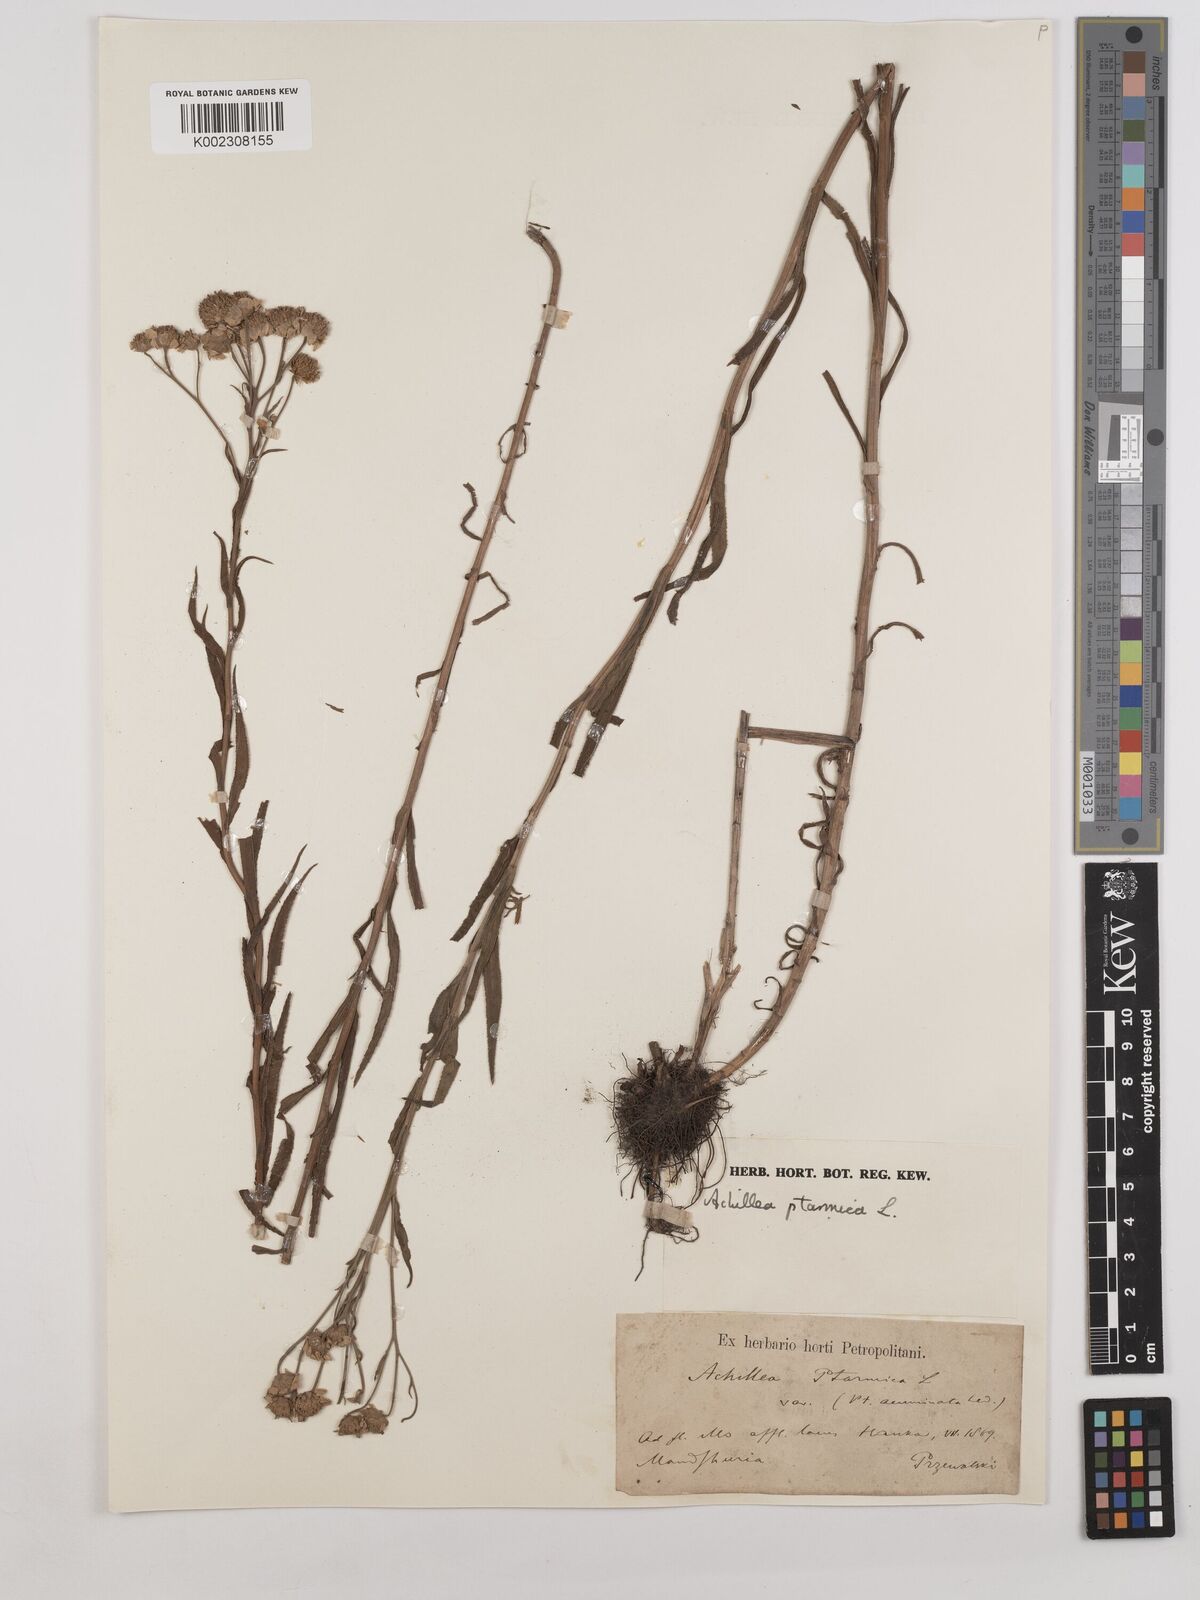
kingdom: Plantae
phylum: Tracheophyta
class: Magnoliopsida
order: Asterales
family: Asteraceae
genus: Achillea
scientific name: Achillea ptarmica
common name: Sneezeweed
